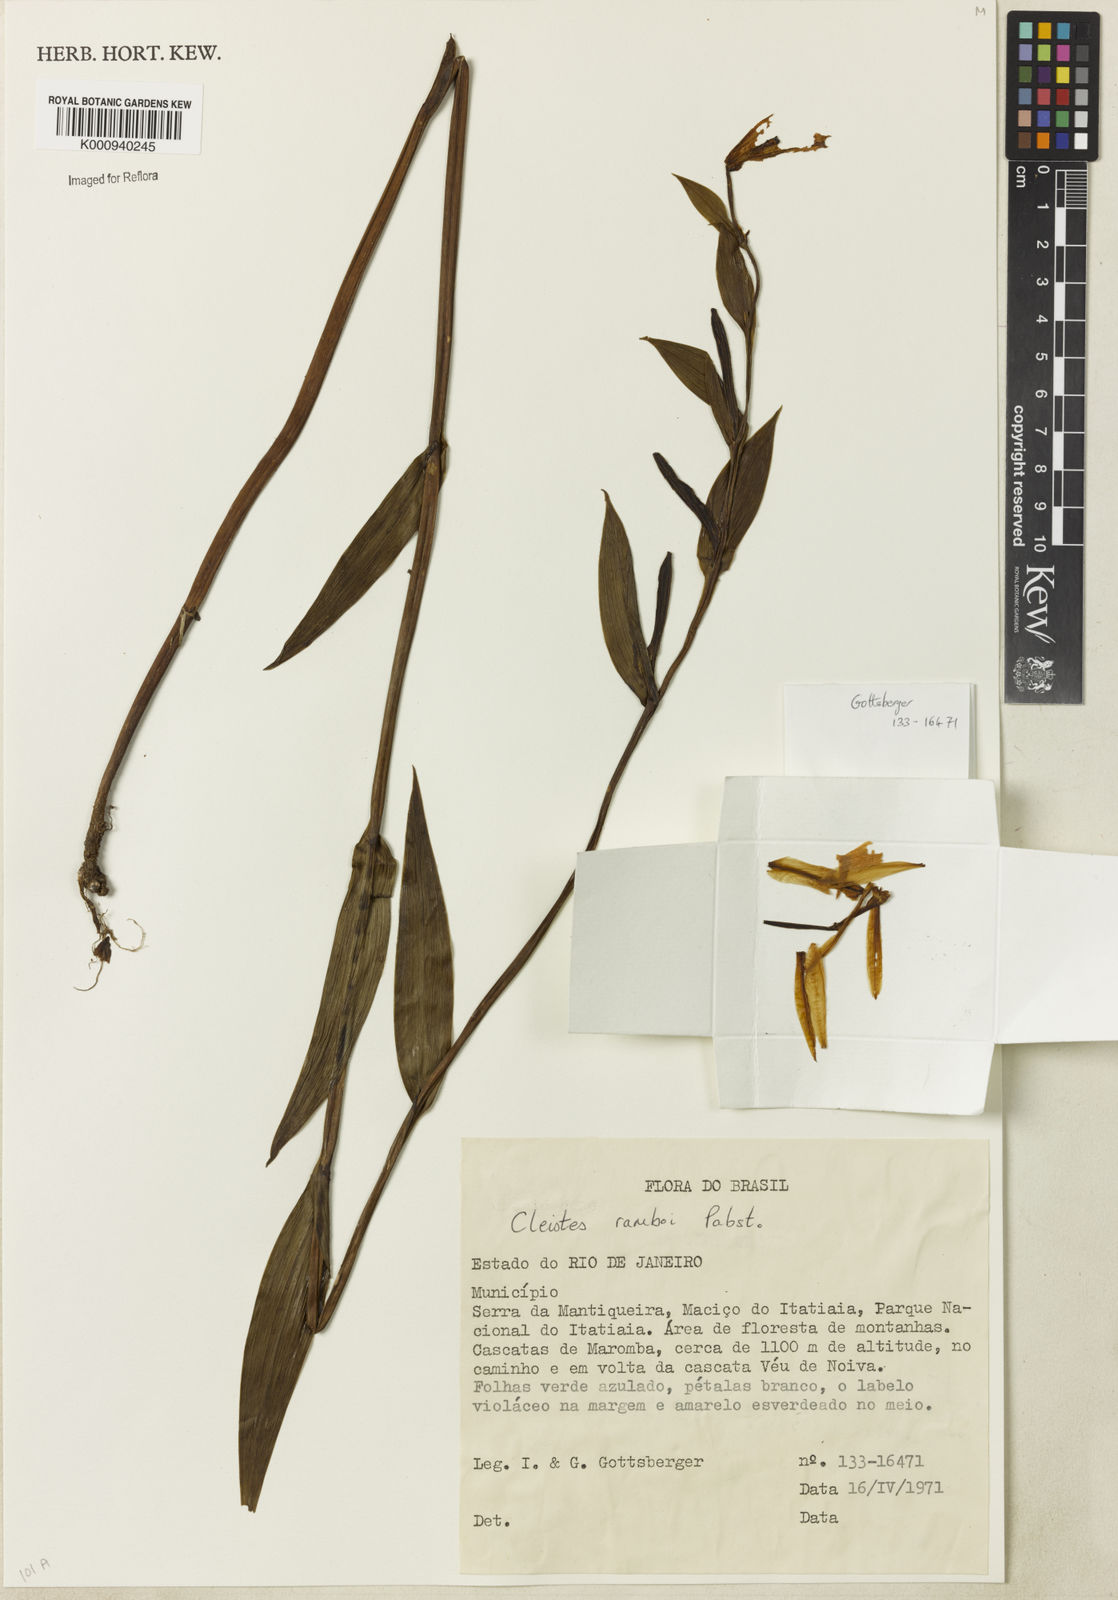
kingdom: Plantae
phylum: Tracheophyta
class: Liliopsida
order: Asparagales
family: Orchidaceae
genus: Cleistes
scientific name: Cleistes ramboi
